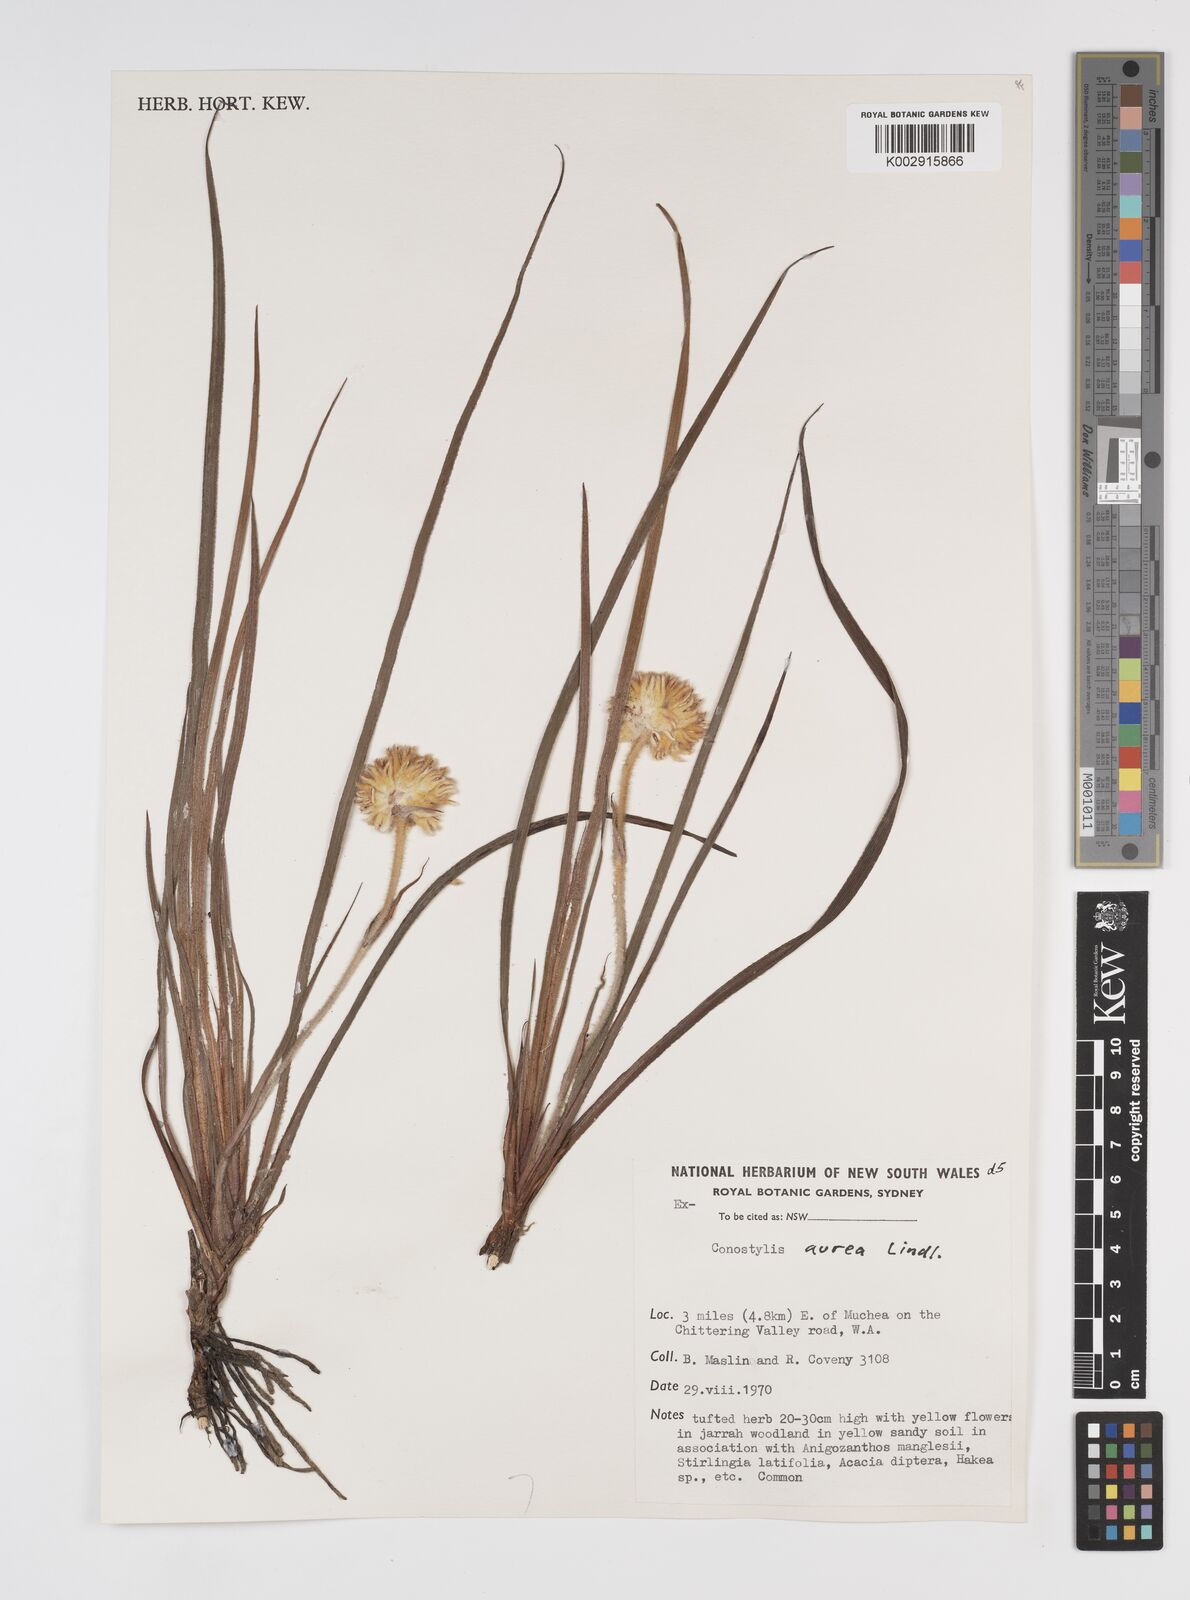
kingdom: Plantae
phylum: Tracheophyta
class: Liliopsida
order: Commelinales
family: Haemodoraceae
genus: Conostylis
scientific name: Conostylis aurea
